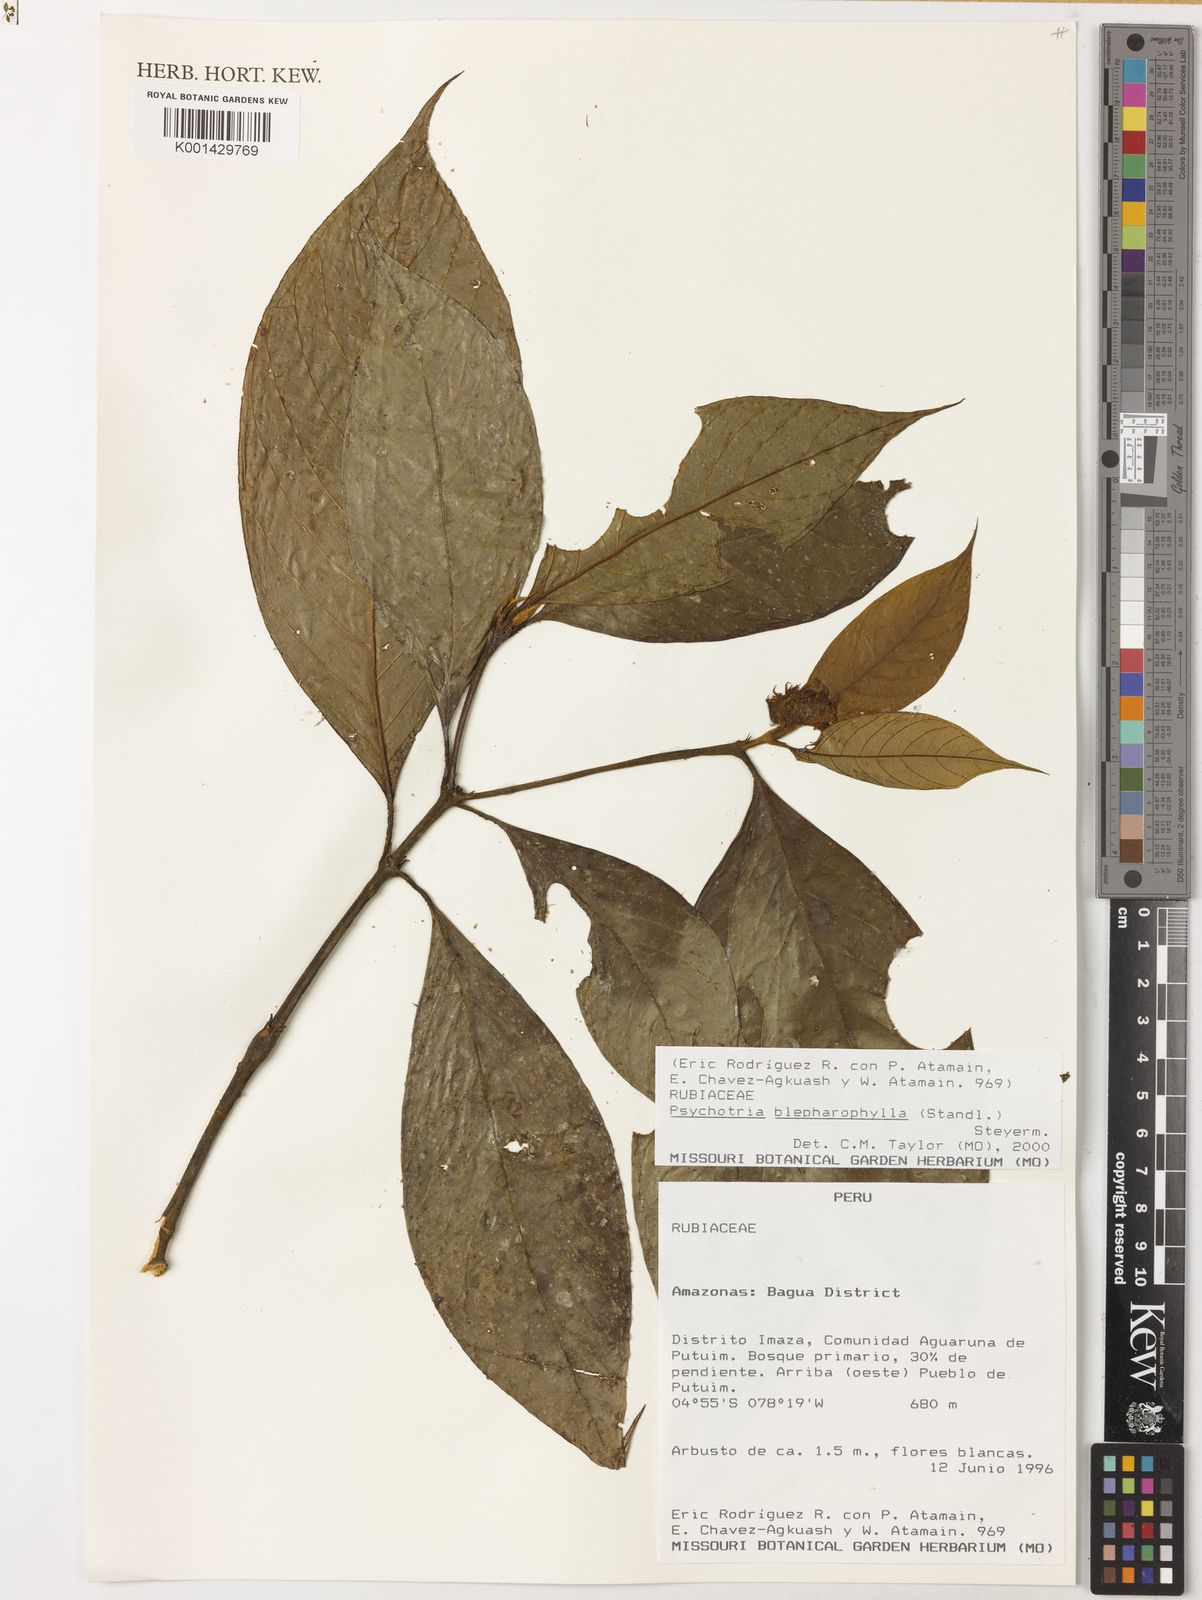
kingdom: Plantae
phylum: Tracheophyta
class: Magnoliopsida
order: Gentianales
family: Rubiaceae
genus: Palicourea
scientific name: Palicourea glabra
